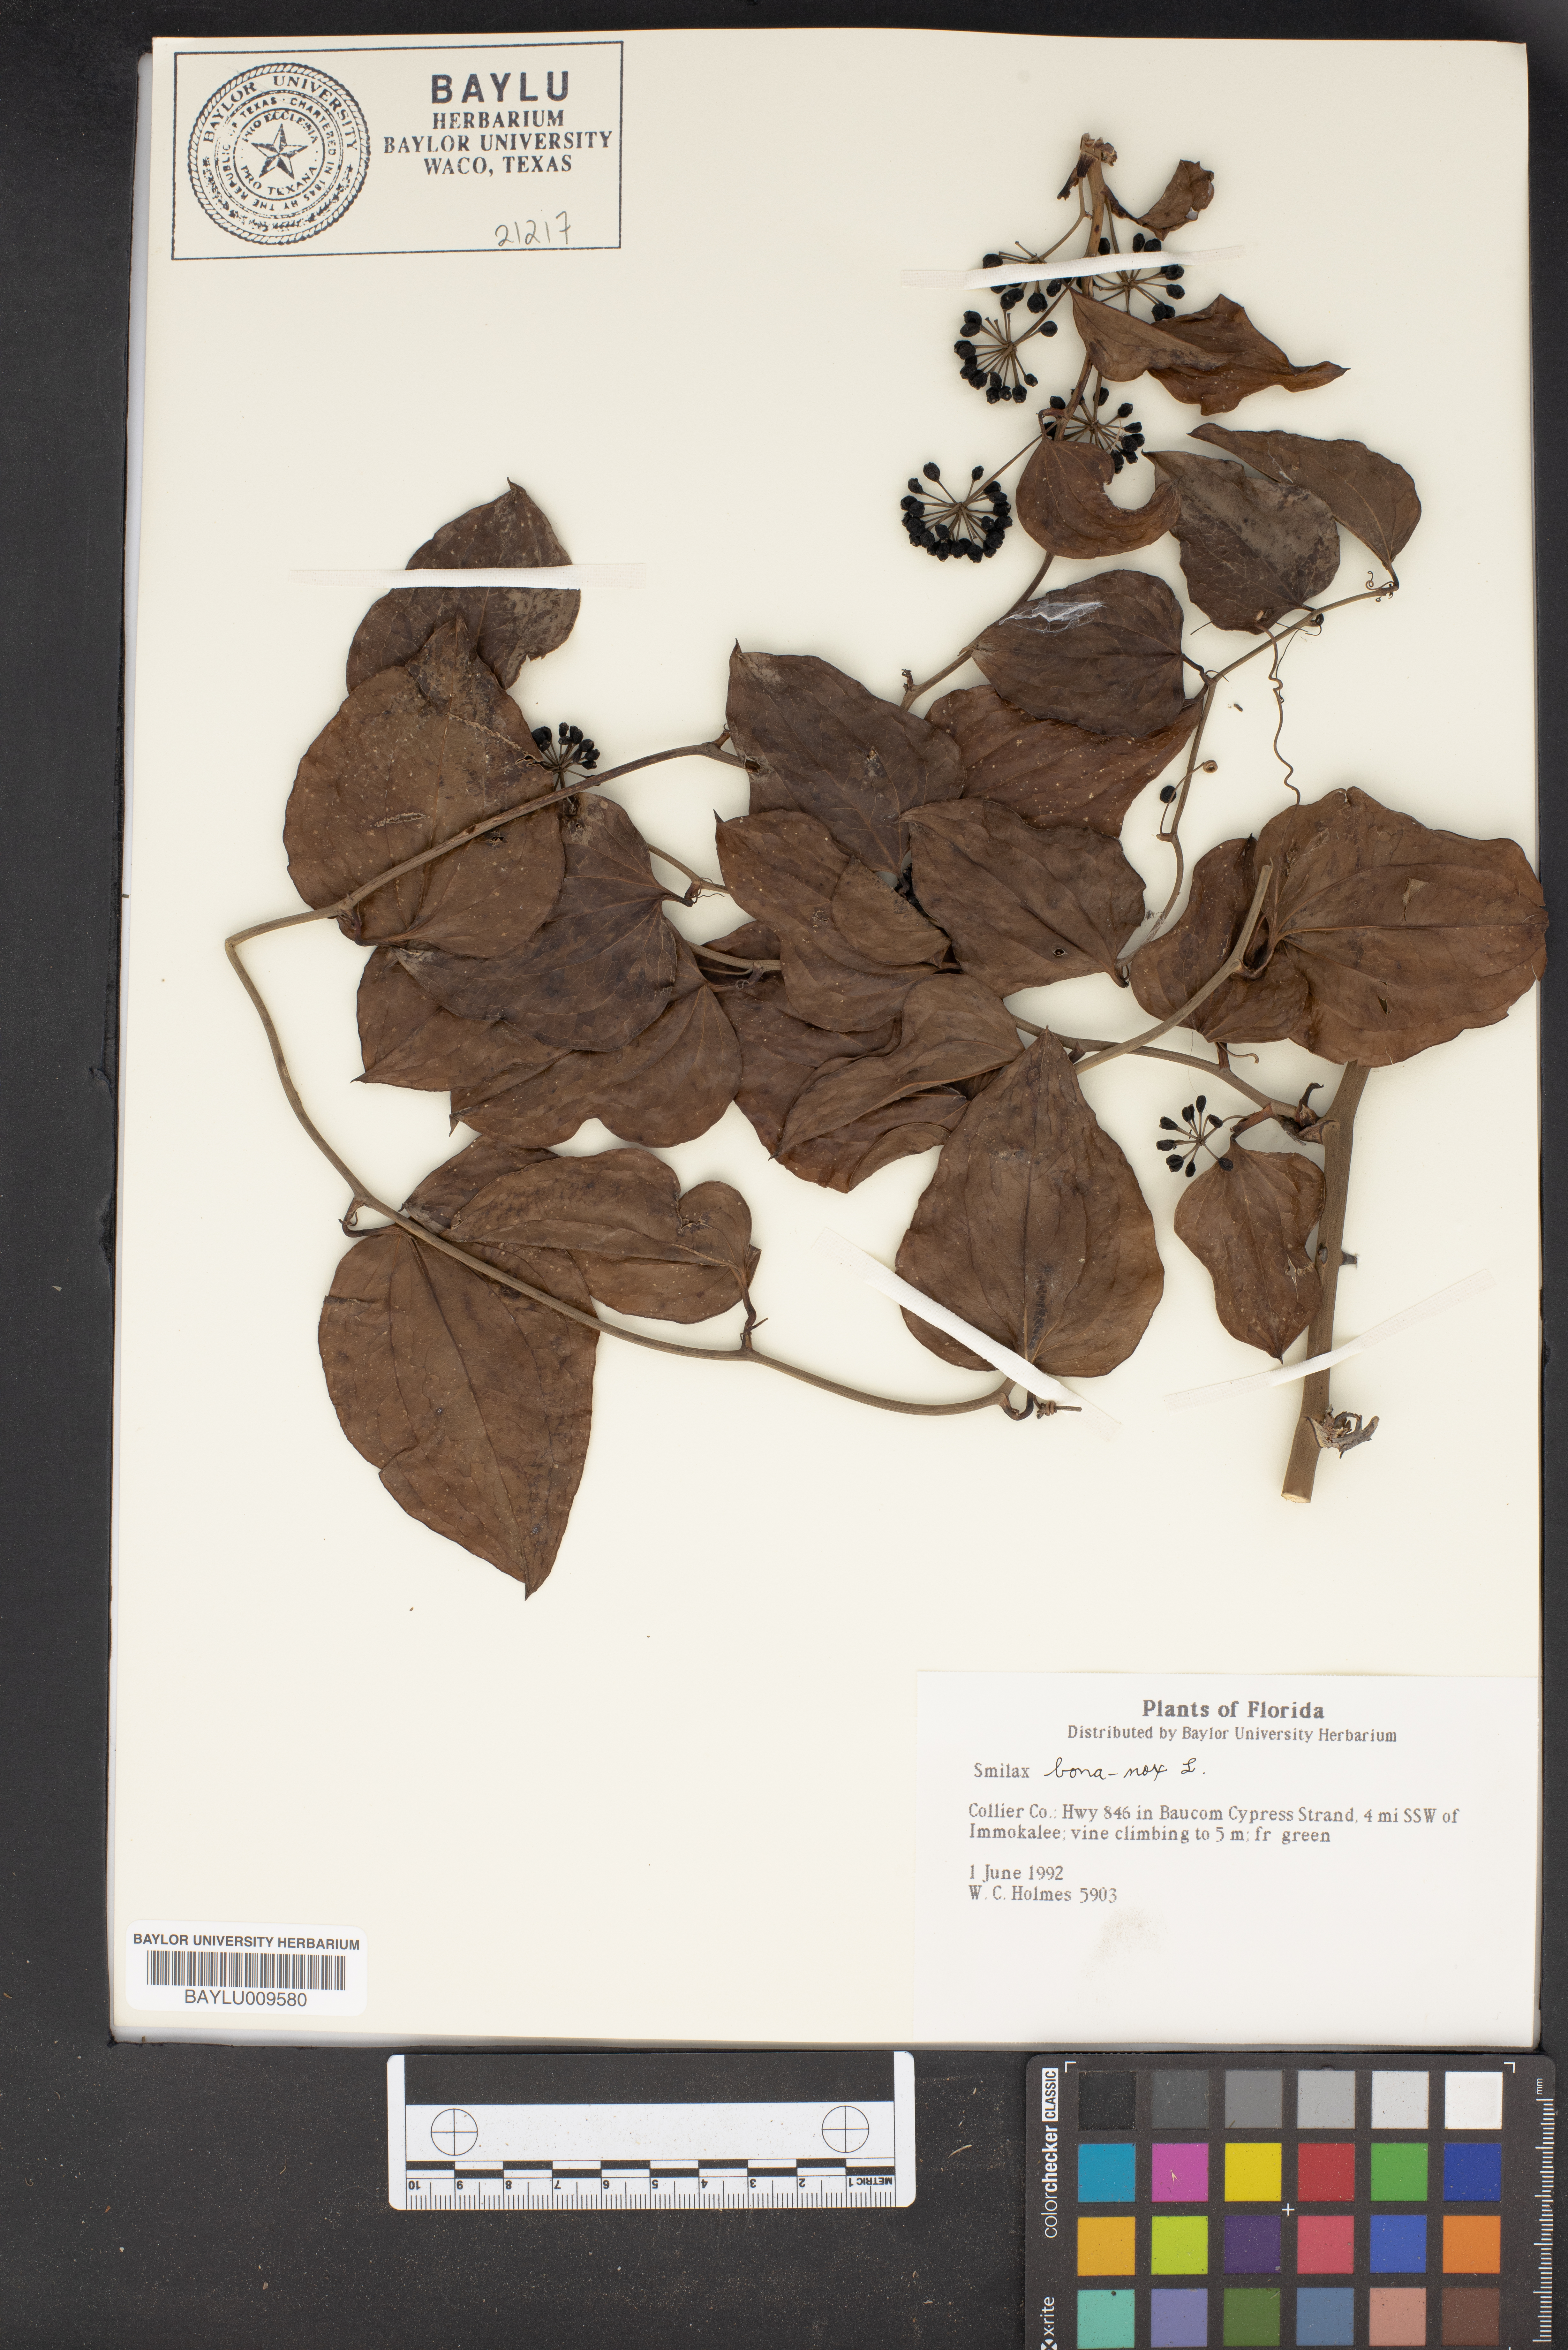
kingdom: Plantae
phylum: Tracheophyta
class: Liliopsida
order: Liliales
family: Smilacaceae
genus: Smilax
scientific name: Smilax bona-nox
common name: Catbrier
